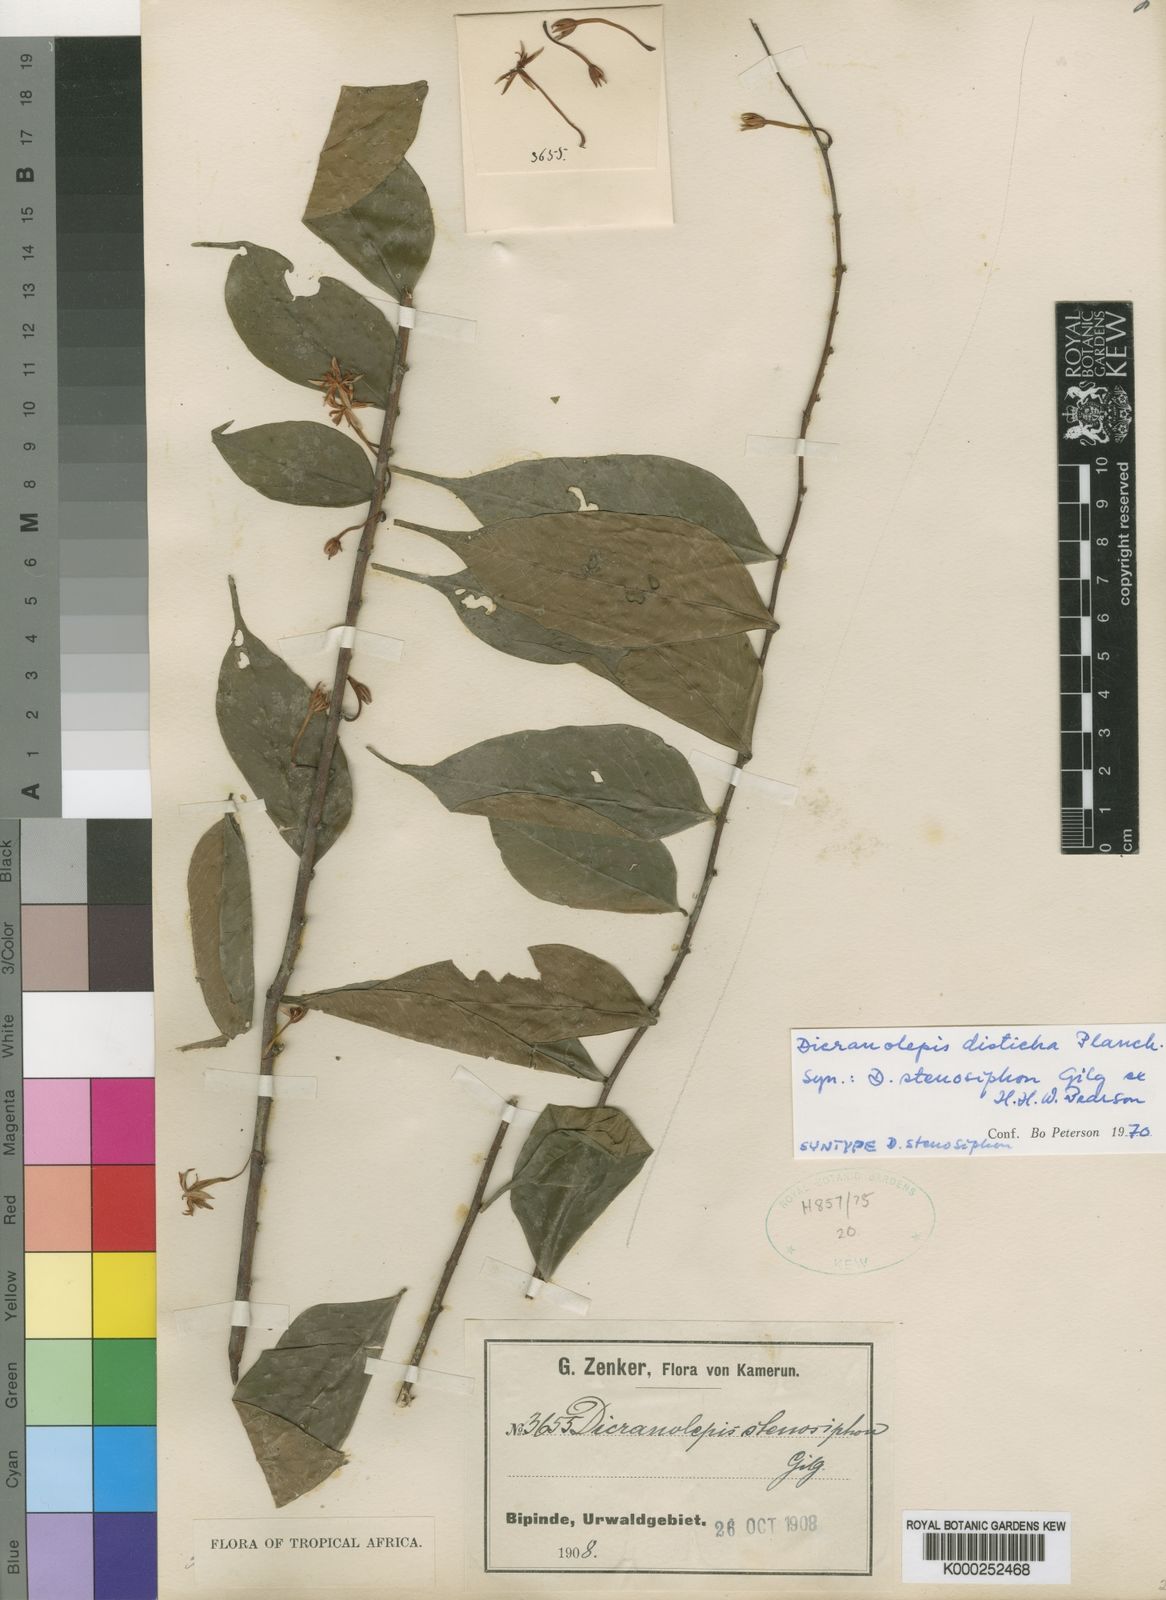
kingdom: Plantae
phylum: Tracheophyta
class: Magnoliopsida
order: Malvales
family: Thymelaeaceae
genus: Dicranolepis
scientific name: Dicranolepis disticha
